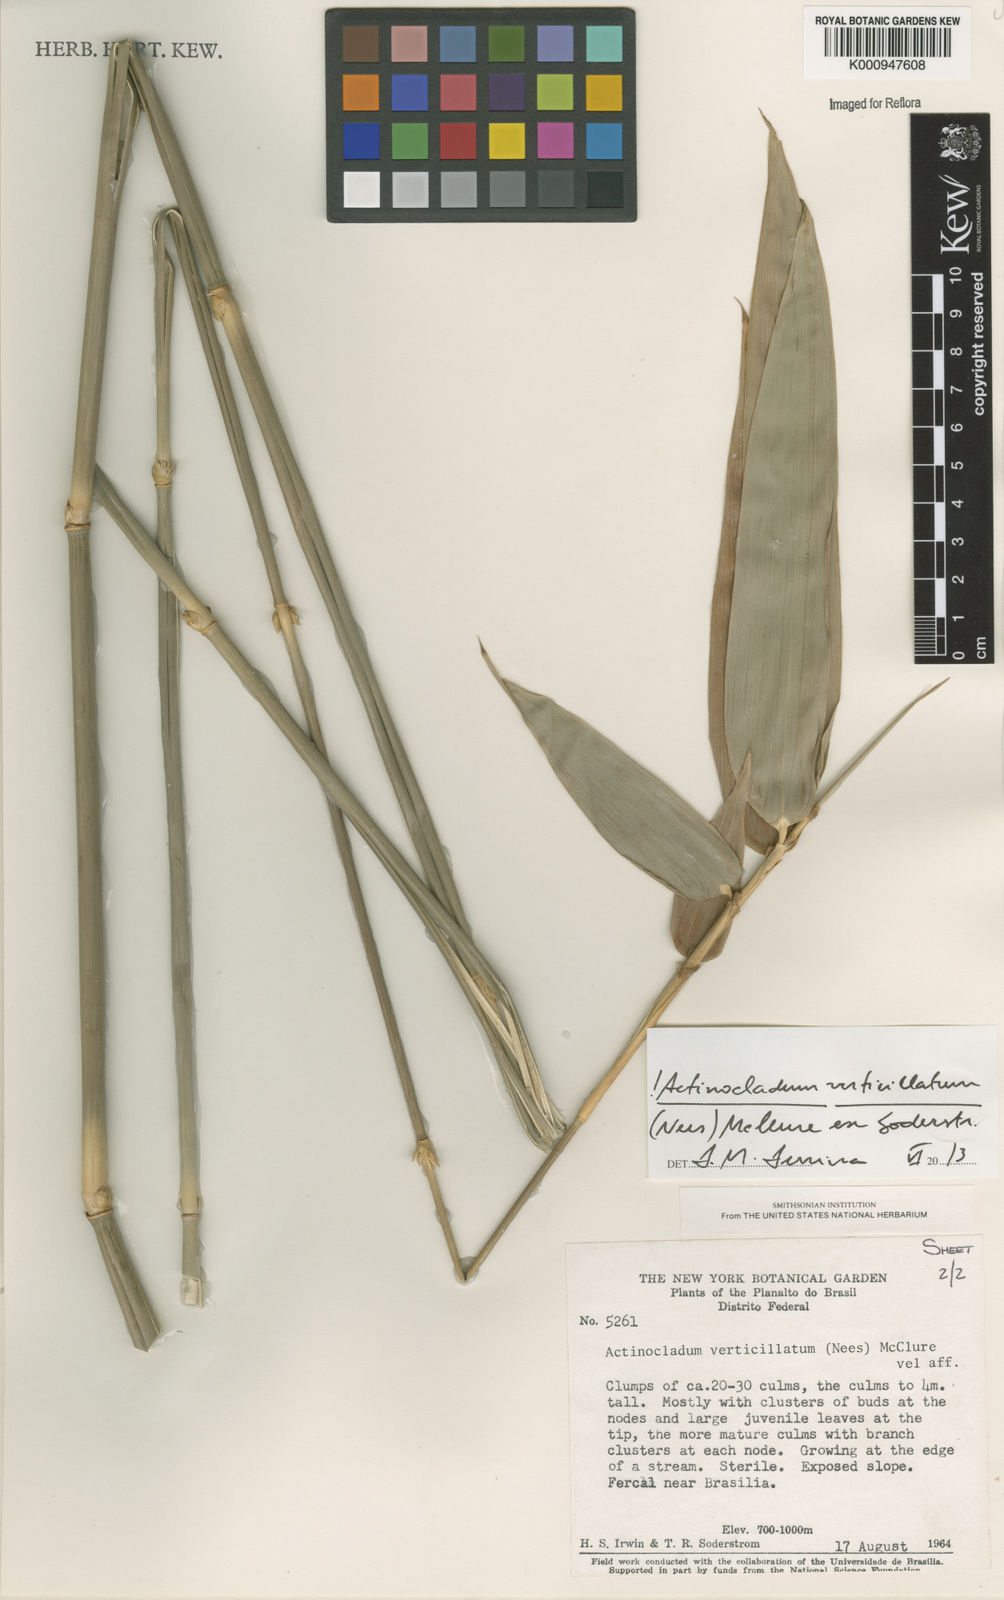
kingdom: Plantae
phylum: Tracheophyta
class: Liliopsida
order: Poales
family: Poaceae
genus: Actinocladum
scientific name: Actinocladum verticillatum
